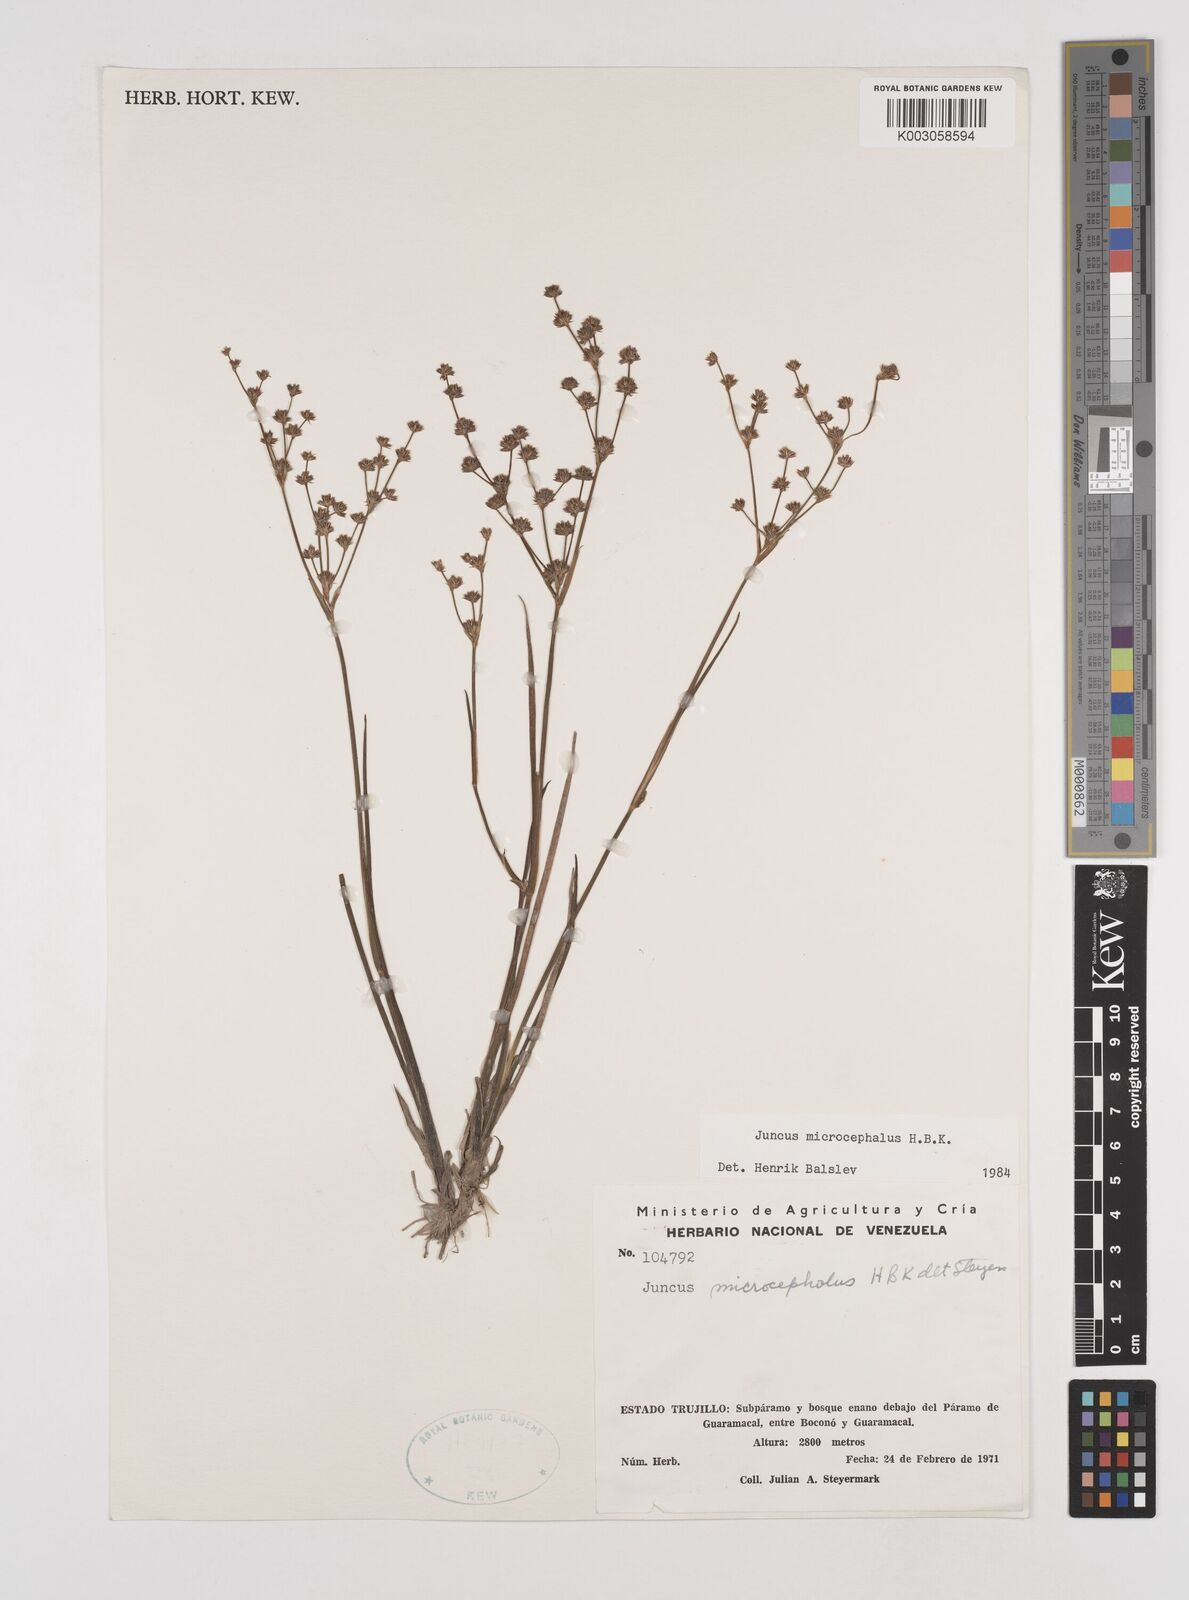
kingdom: Plantae
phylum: Tracheophyta
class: Liliopsida
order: Poales
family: Juncaceae
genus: Juncus
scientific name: Juncus
